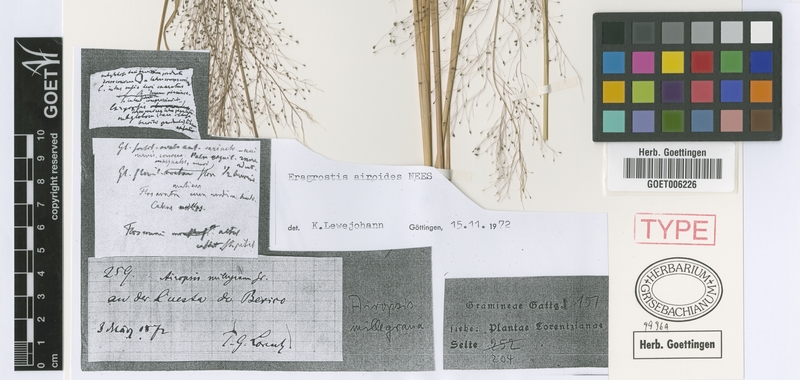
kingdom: Plantae
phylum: Tracheophyta
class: Liliopsida
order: Poales
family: Poaceae
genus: Eragrostis
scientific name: Eragrostis airoides
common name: Darnel lovegrass
